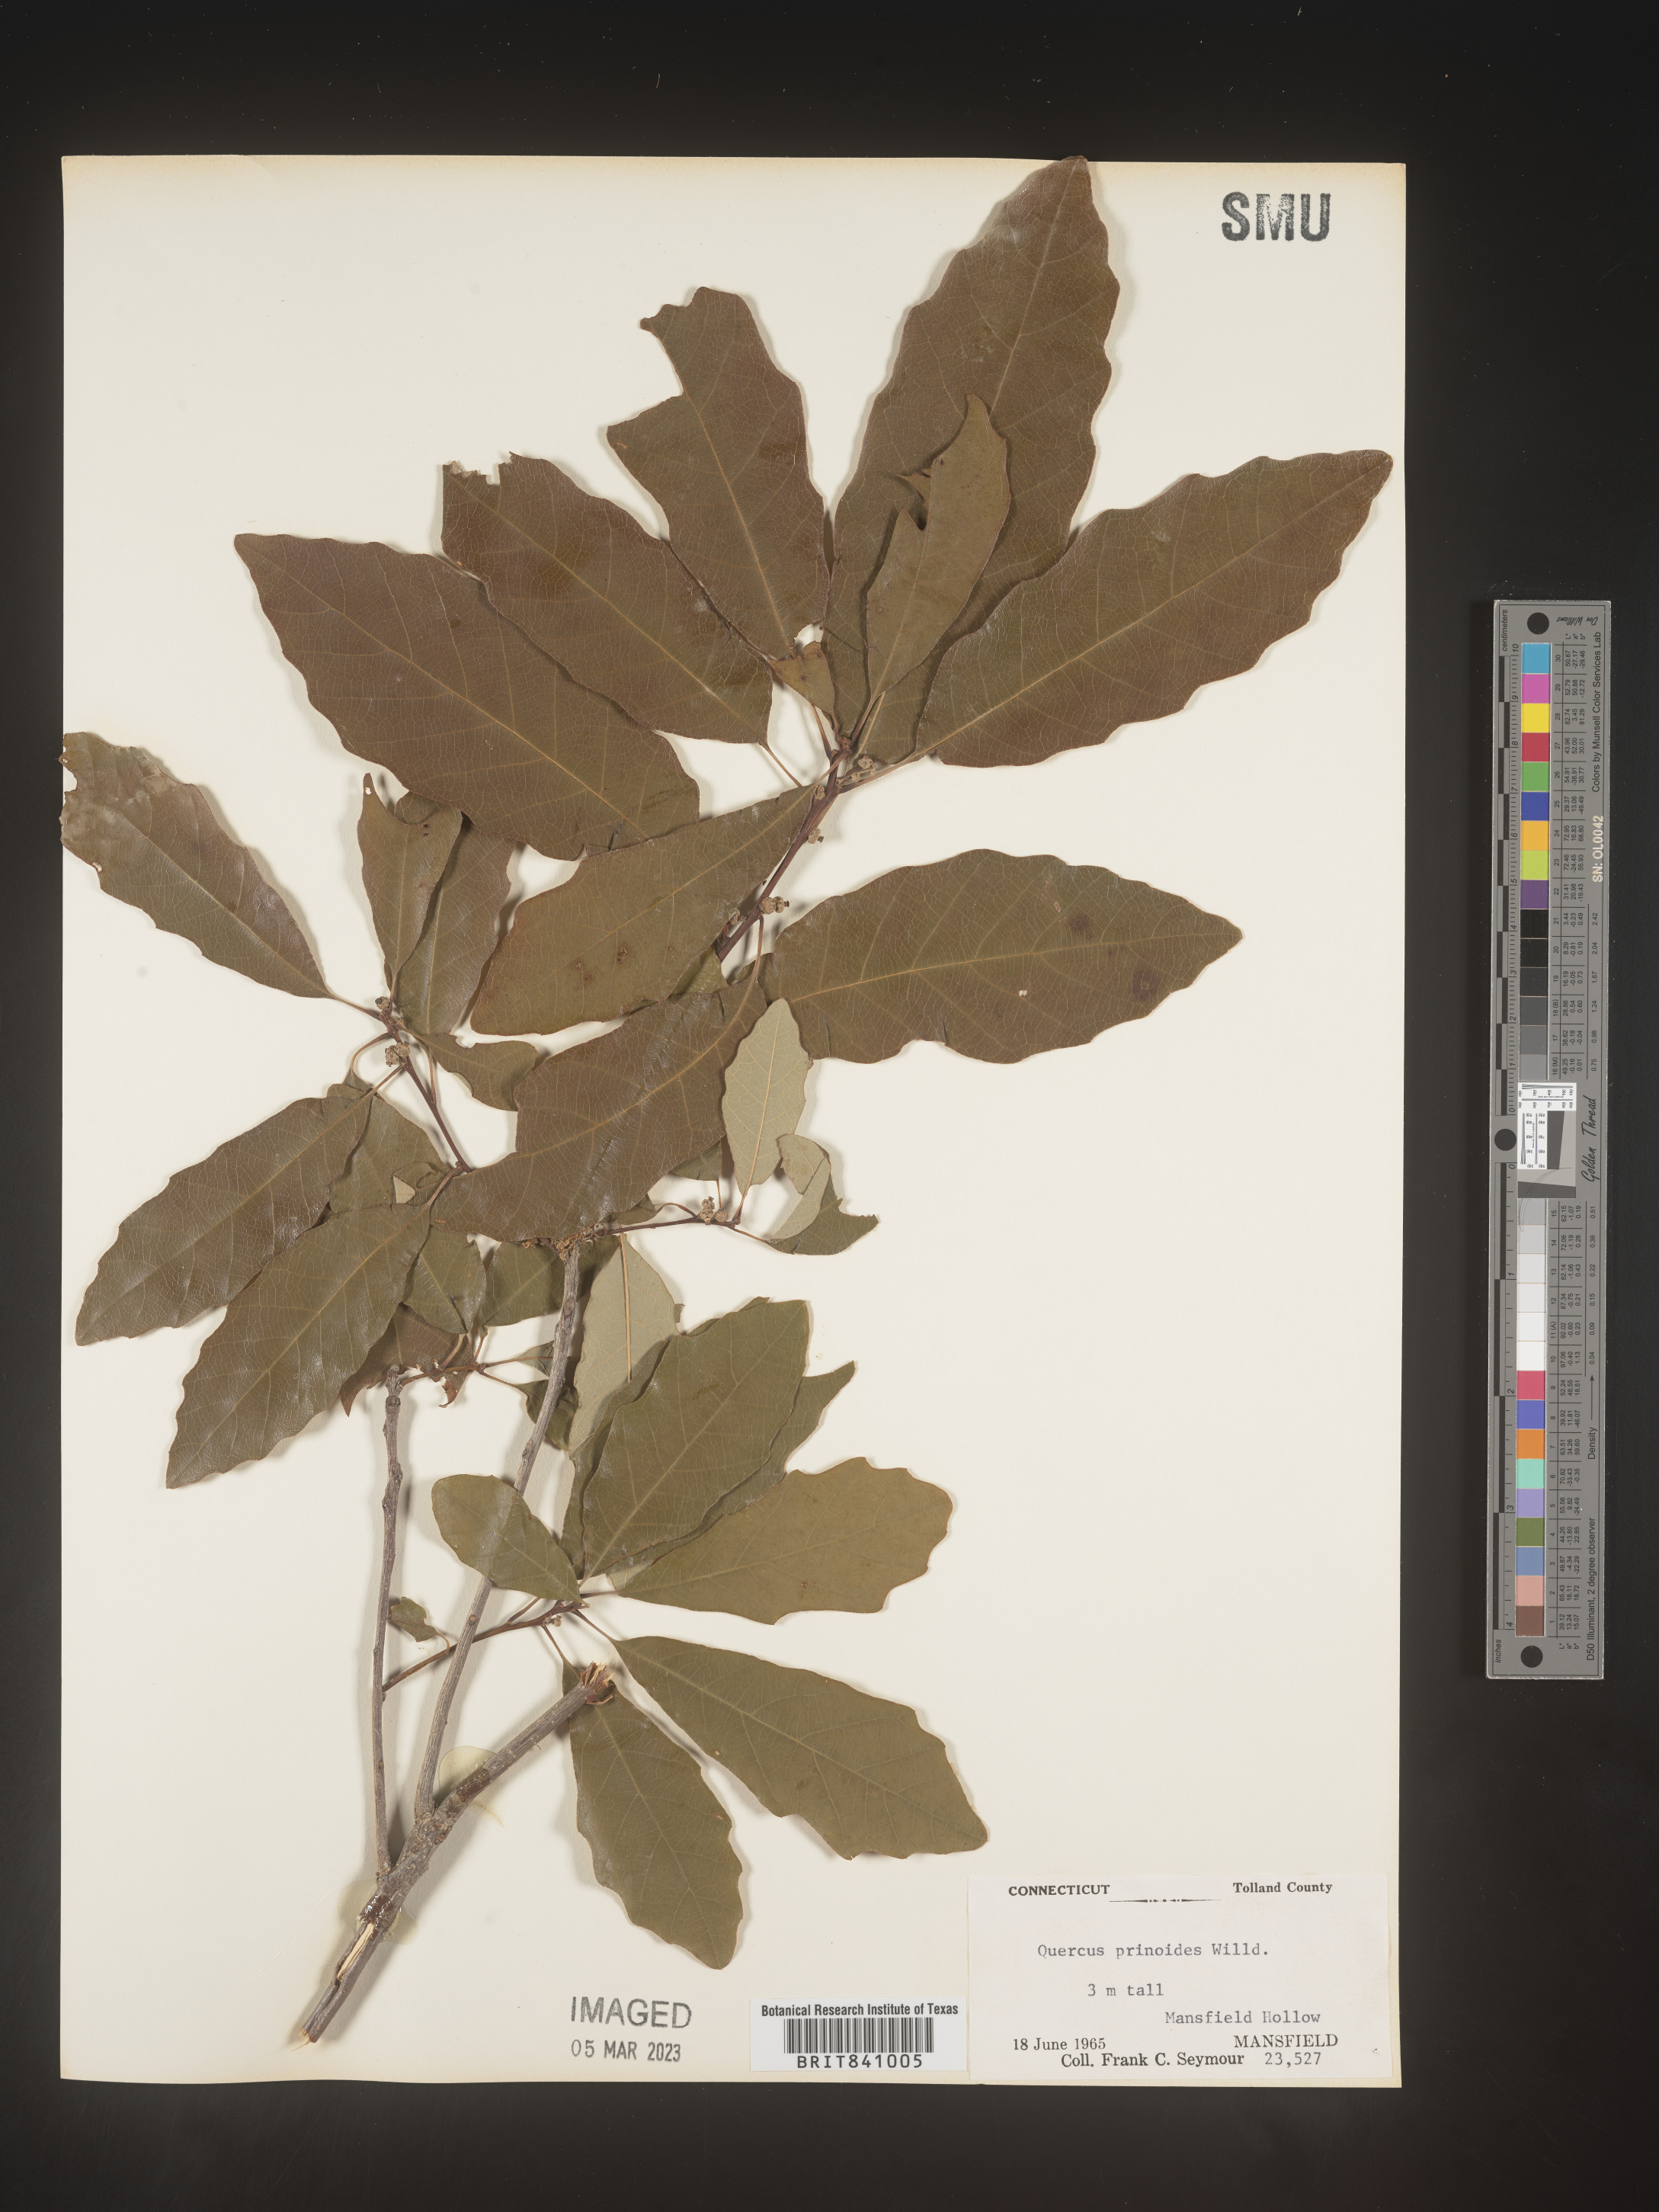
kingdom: Plantae
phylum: Tracheophyta
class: Magnoliopsida
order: Fagales
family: Fagaceae
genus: Quercus
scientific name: Quercus prinoides
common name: Dwarf chinkapin oak
